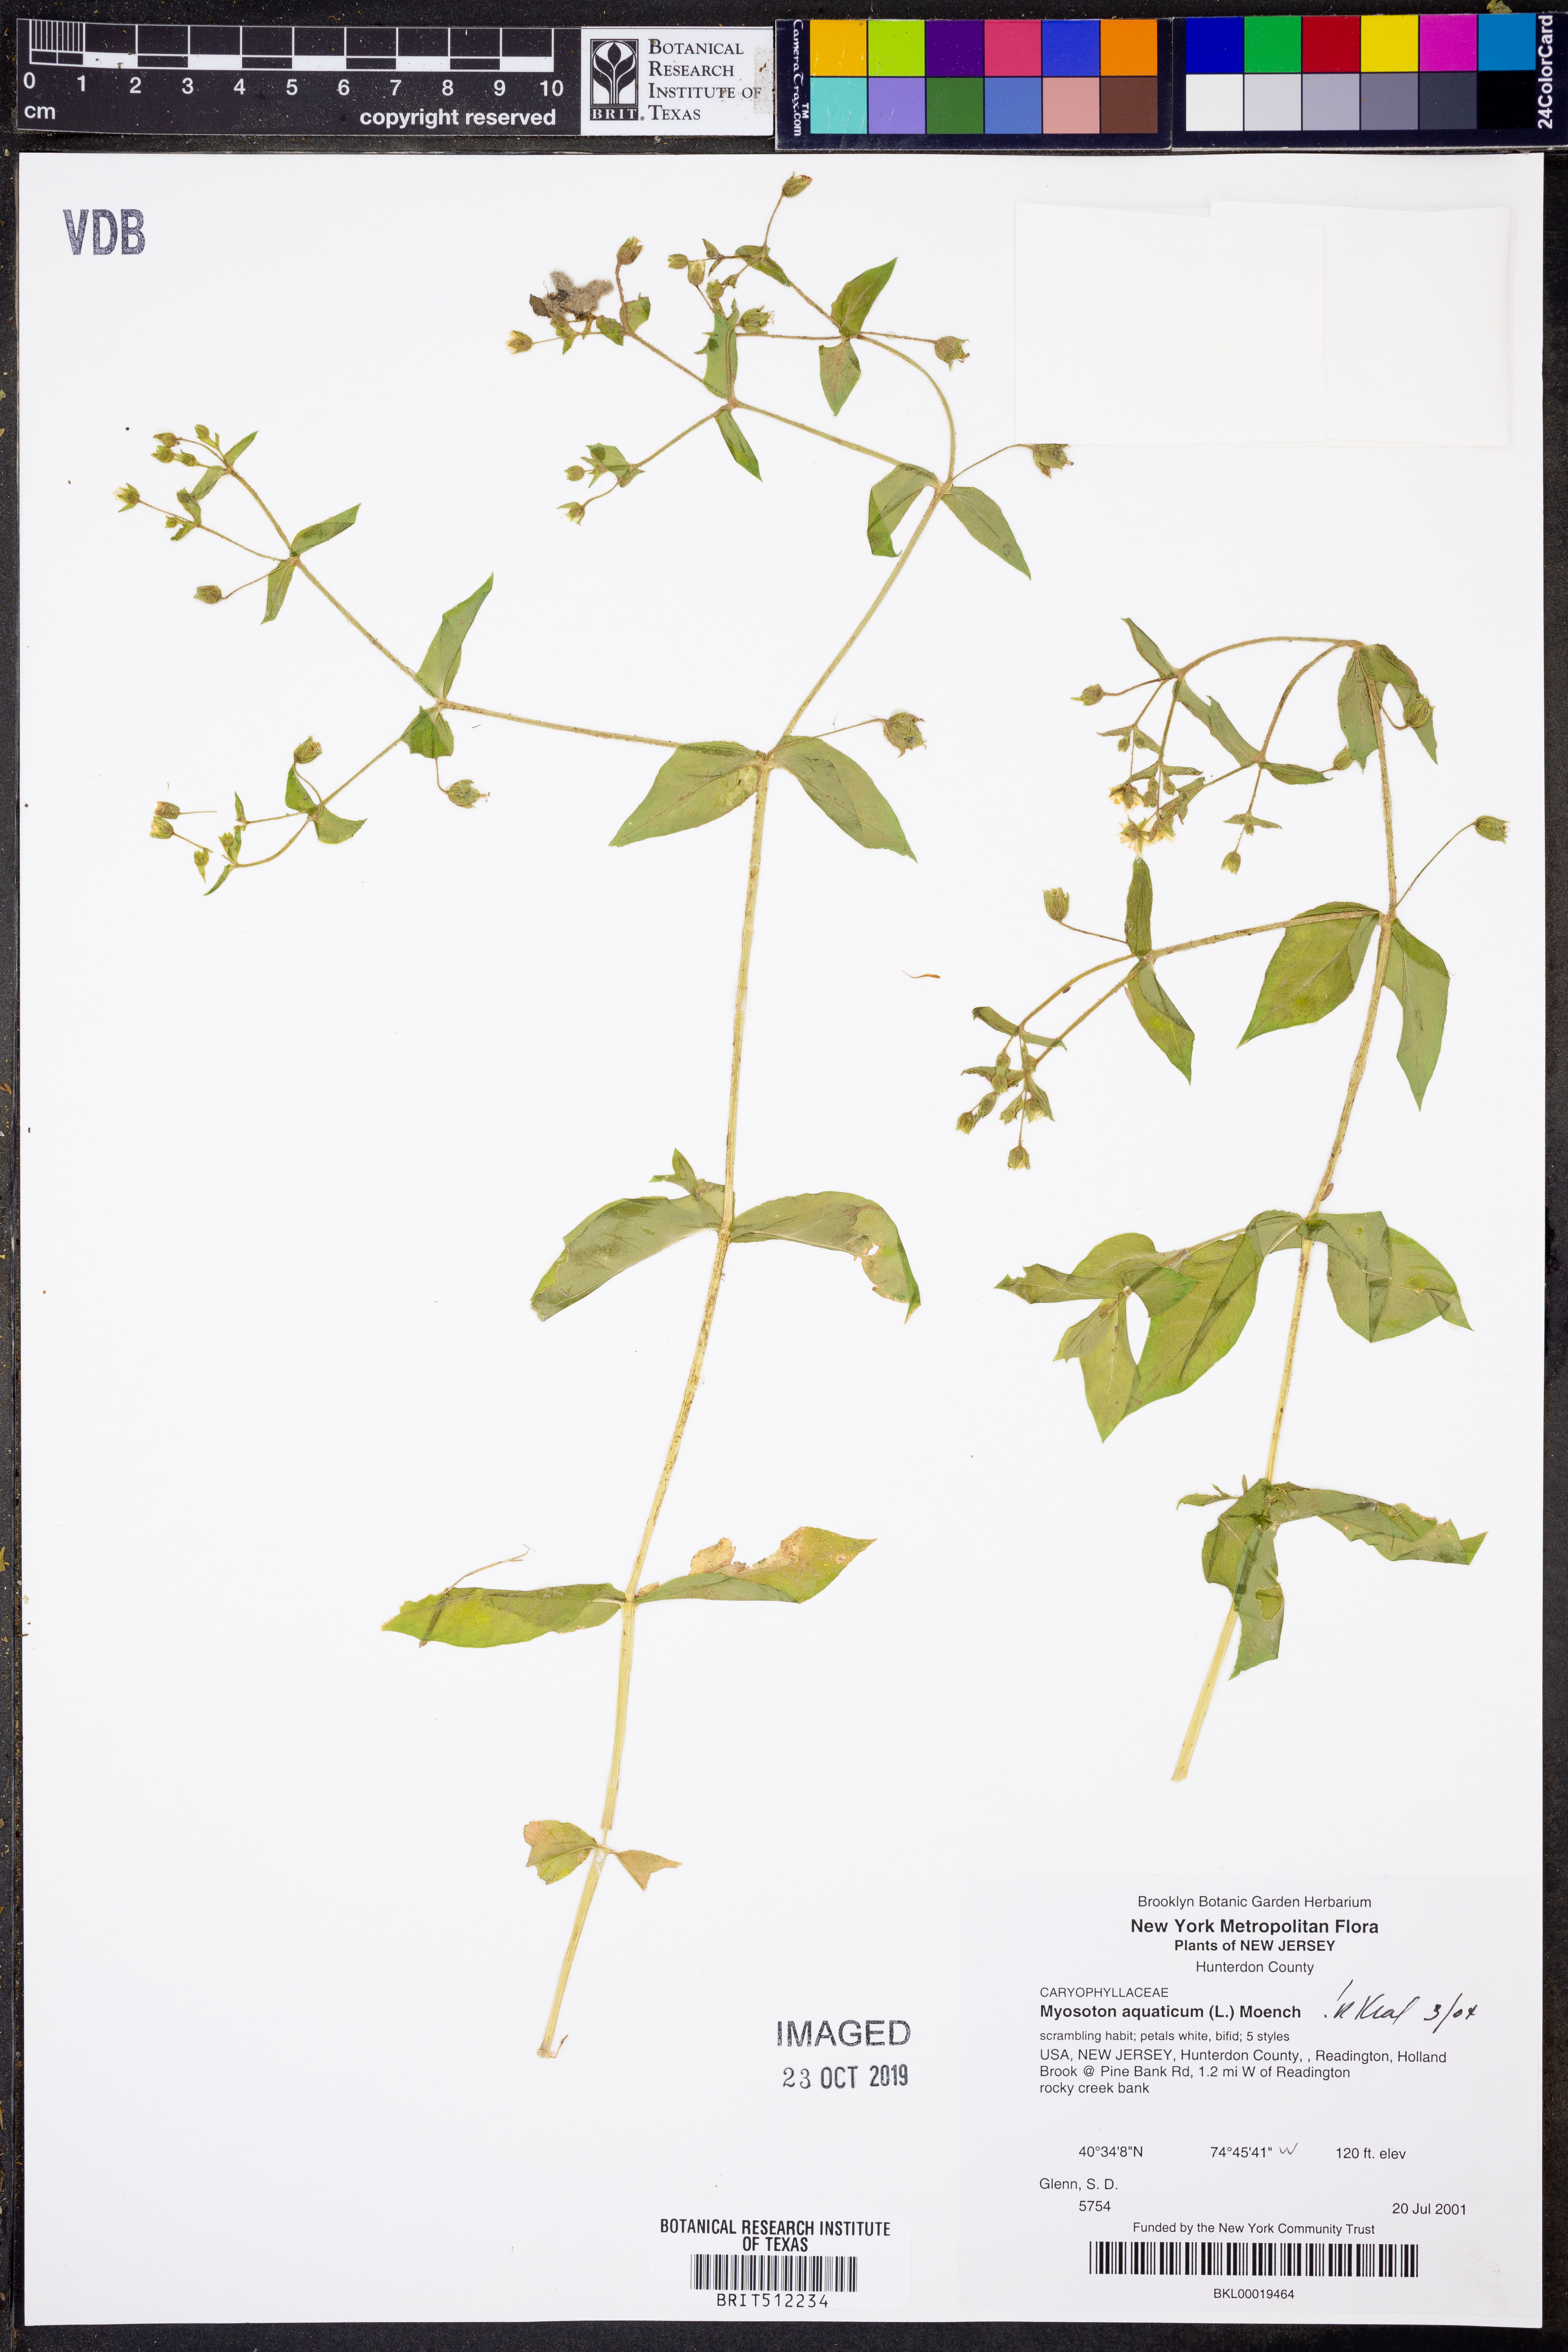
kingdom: Plantae
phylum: Tracheophyta
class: Magnoliopsida
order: Caryophyllales
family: Caryophyllaceae
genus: Stellaria
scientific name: Stellaria aquatica
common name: Water chickweed
